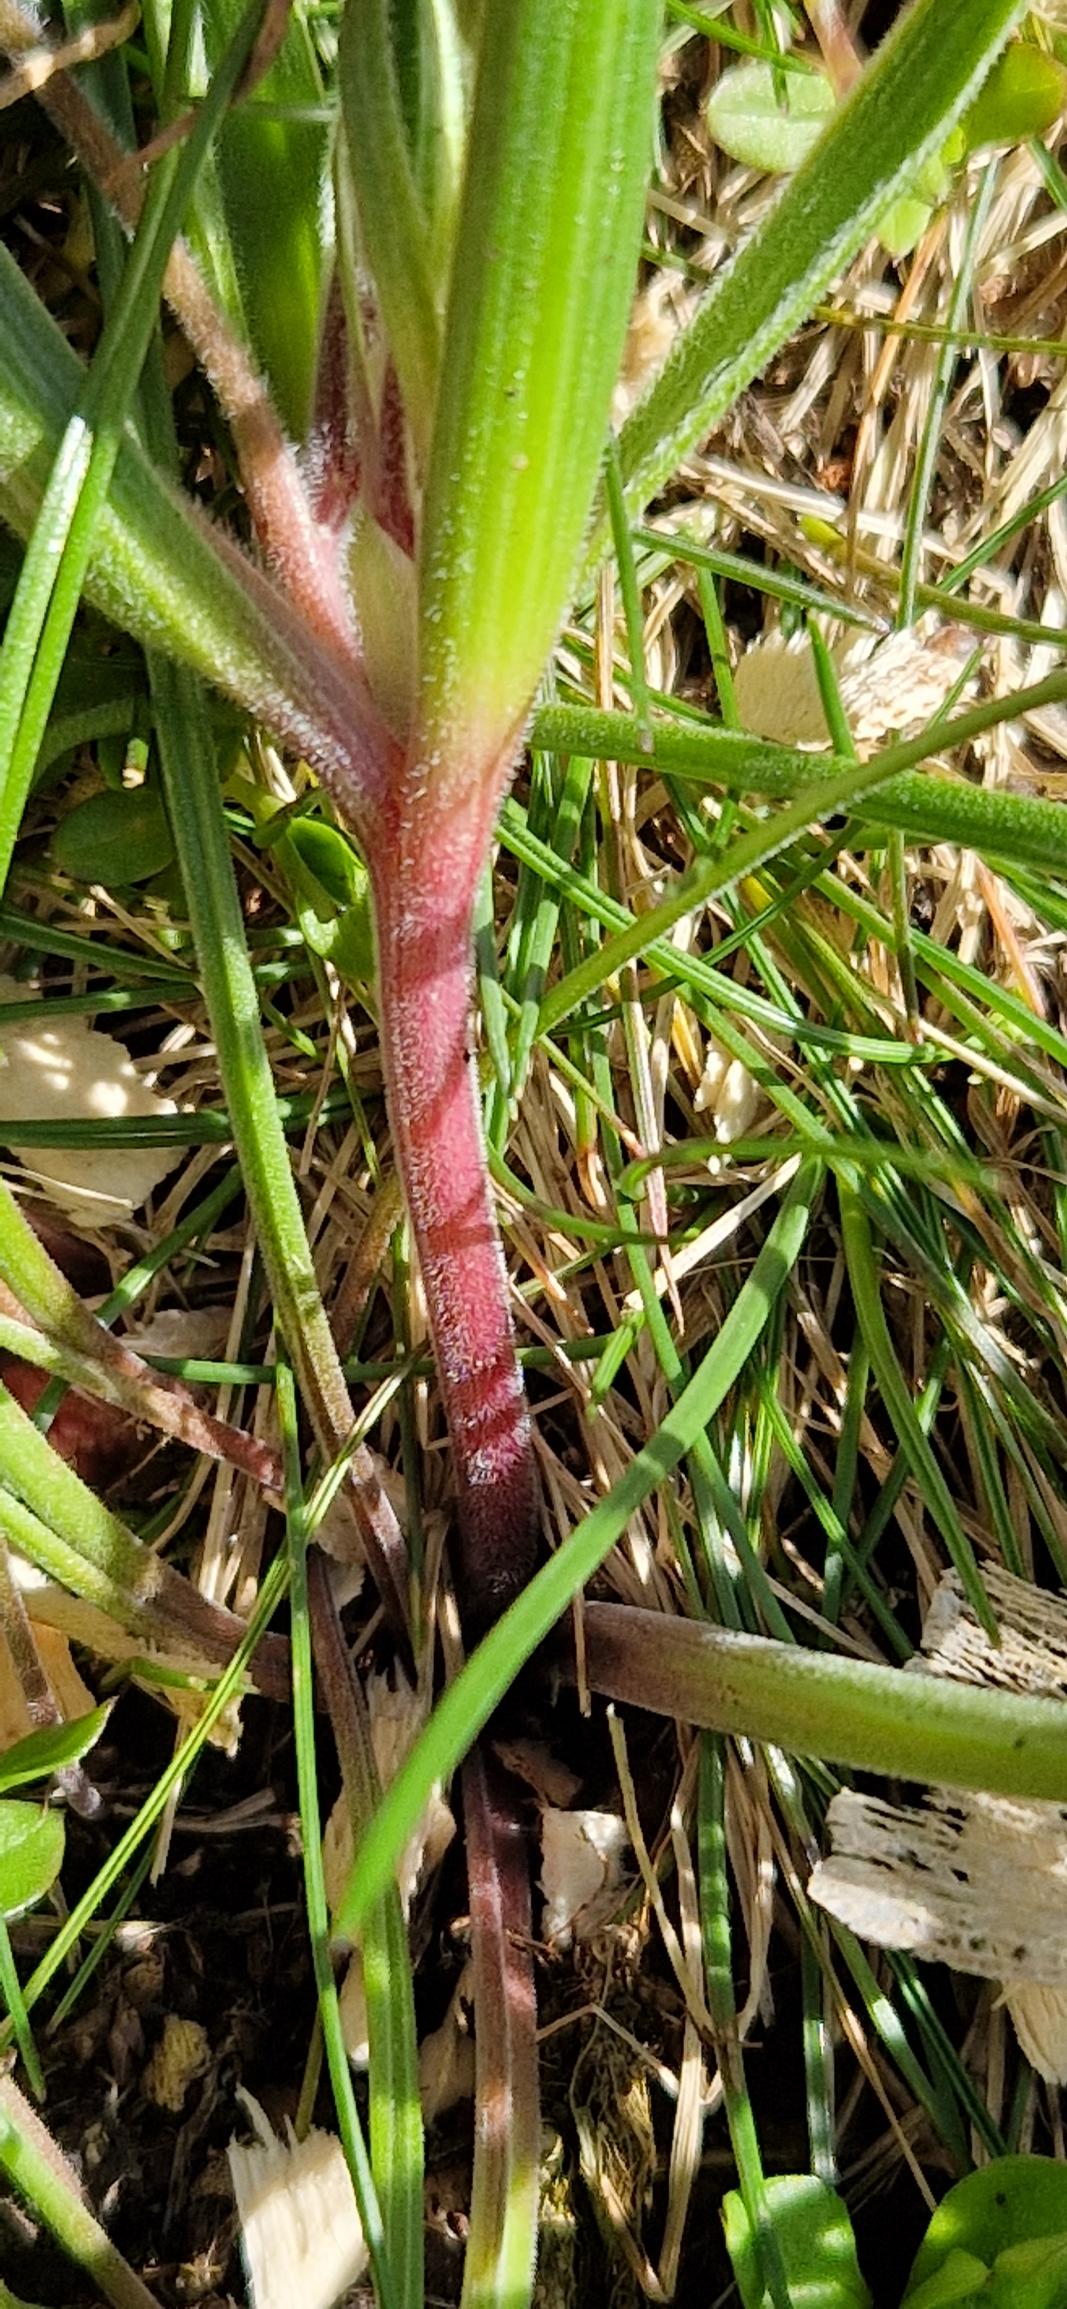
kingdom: Plantae
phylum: Tracheophyta
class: Liliopsida
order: Liliales
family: Liliaceae
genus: Gagea
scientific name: Gagea villosa
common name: Ager-guldstjerne
